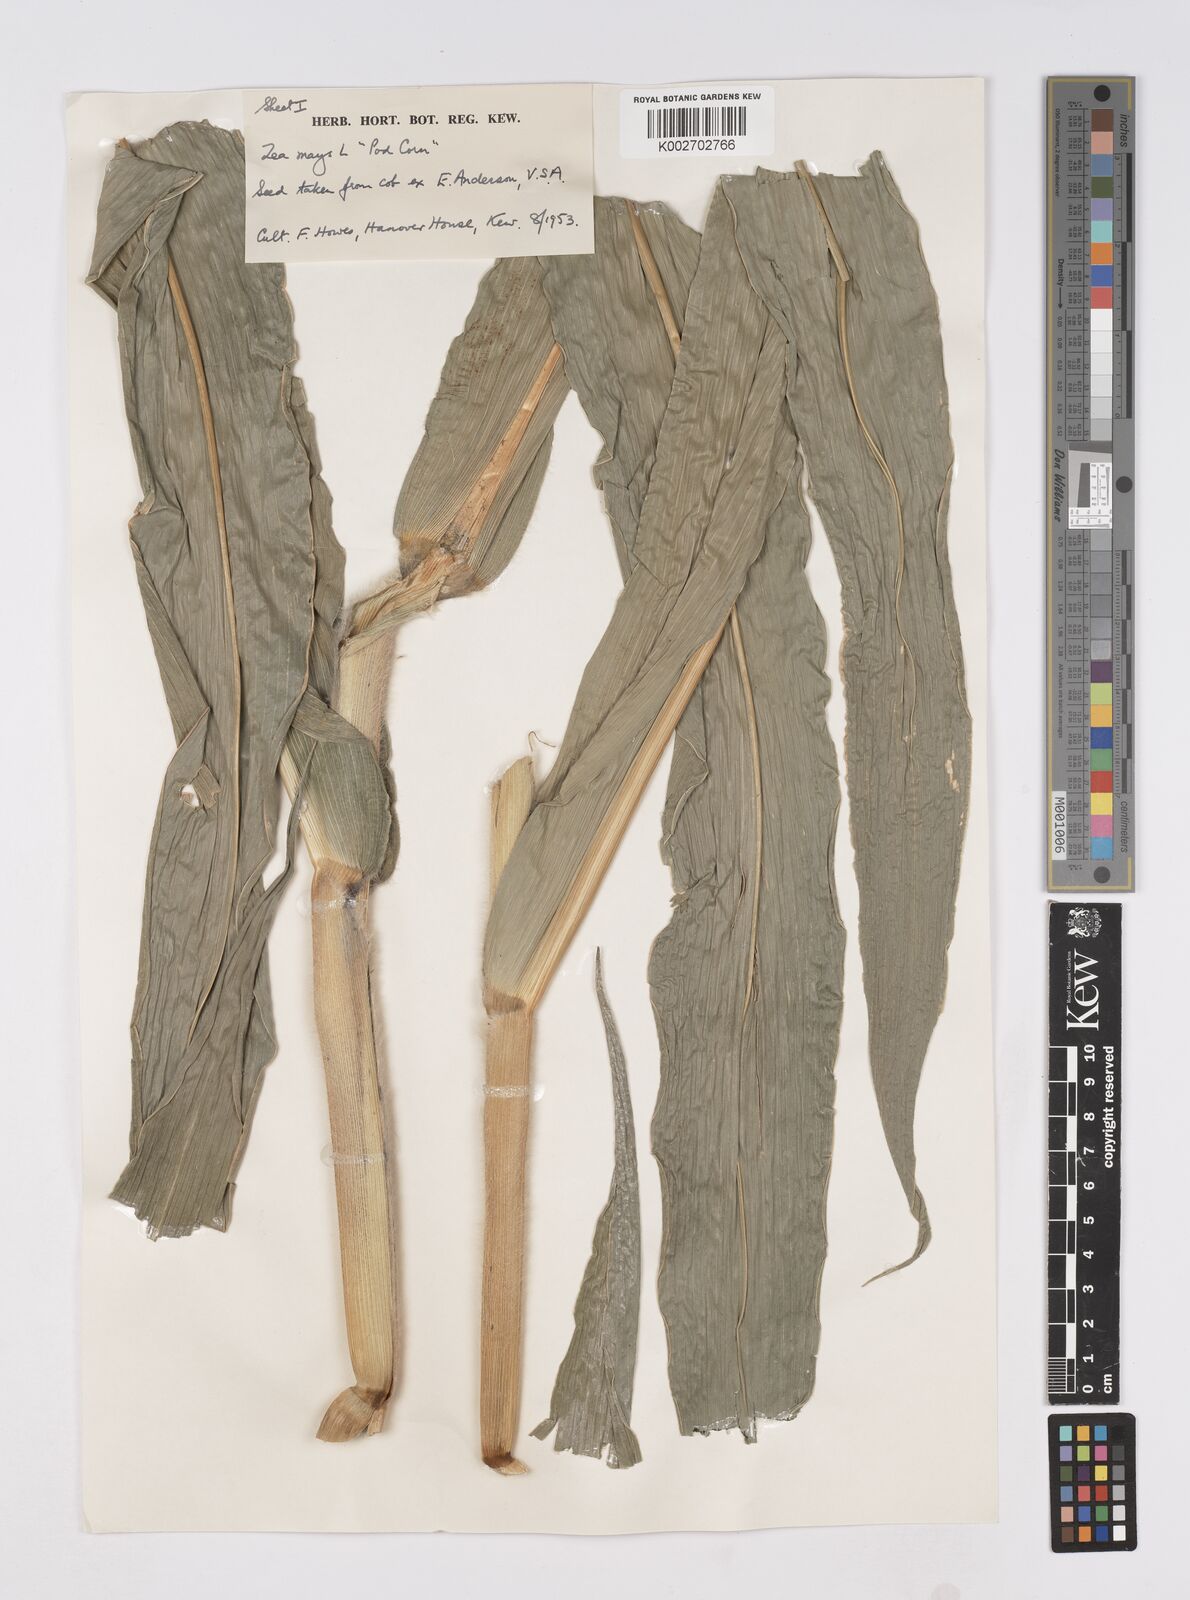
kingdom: Plantae
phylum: Tracheophyta
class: Liliopsida
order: Poales
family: Poaceae
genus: Zea
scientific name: Zea mays
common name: Maize
